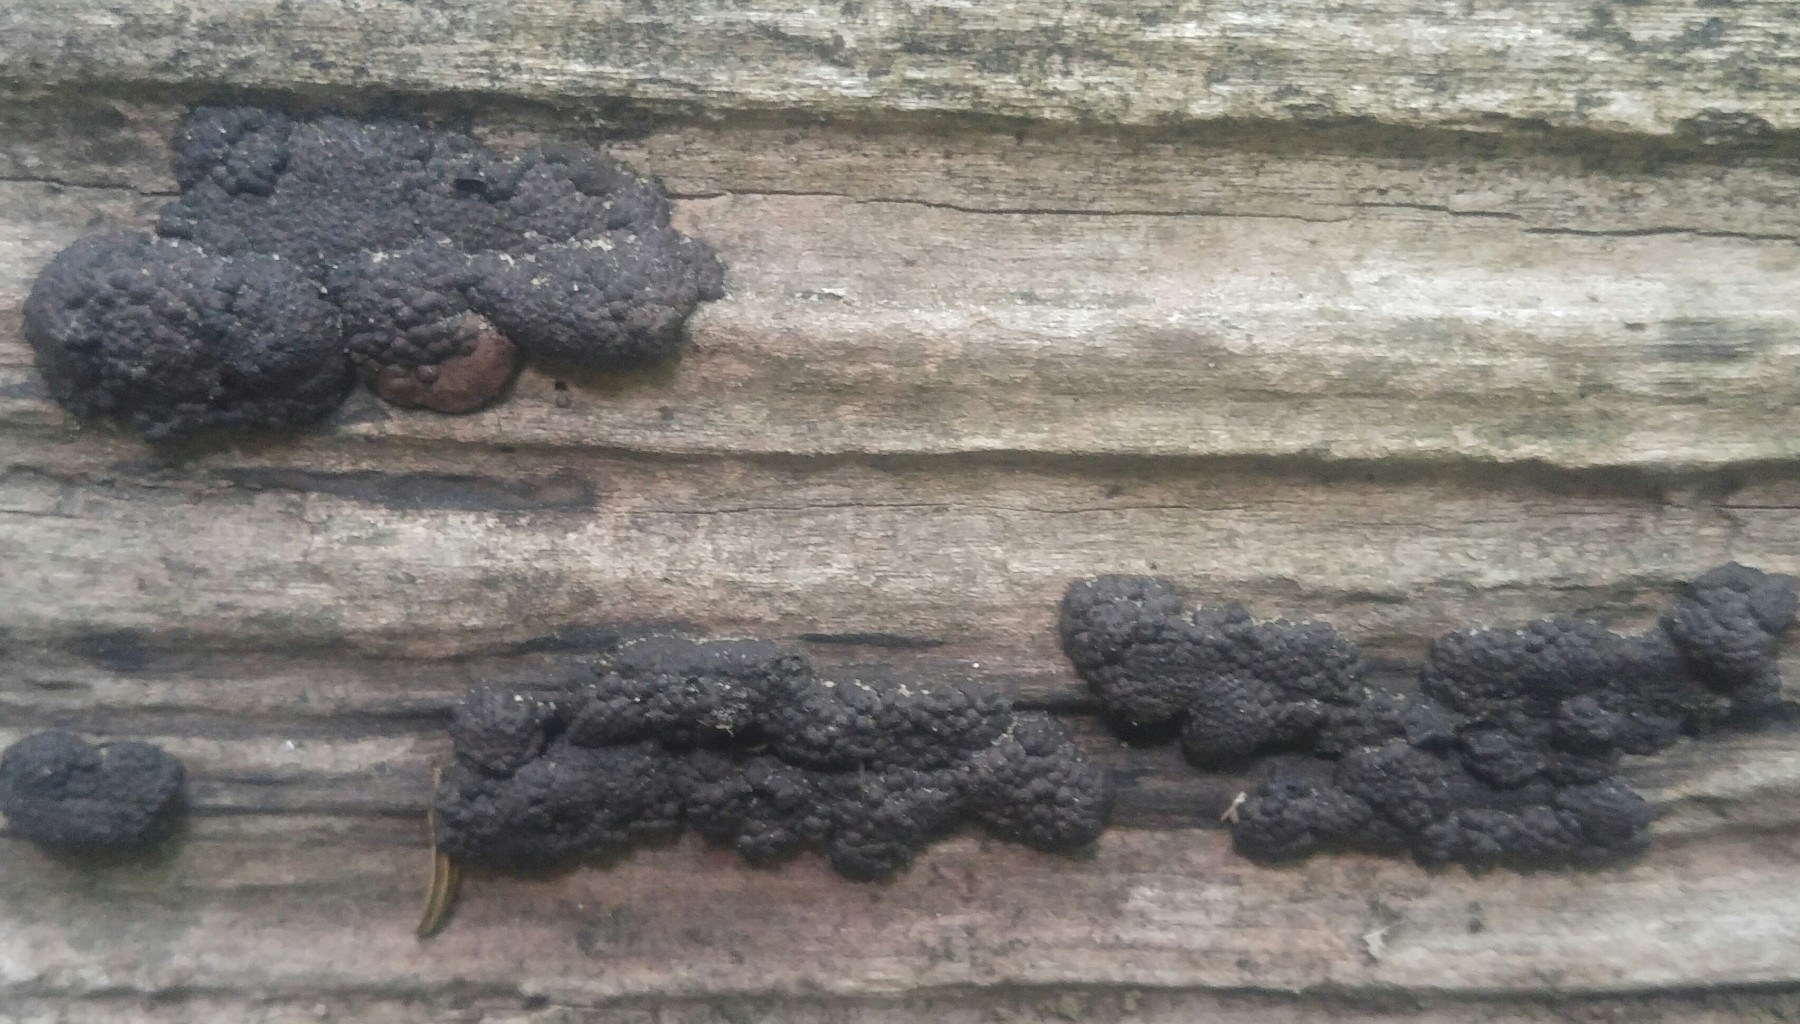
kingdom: Fungi
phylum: Ascomycota
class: Sordariomycetes
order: Xylariales
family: Hypoxylaceae
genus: Jackrogersella
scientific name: Jackrogersella multiformis
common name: foranderlig kulbær
